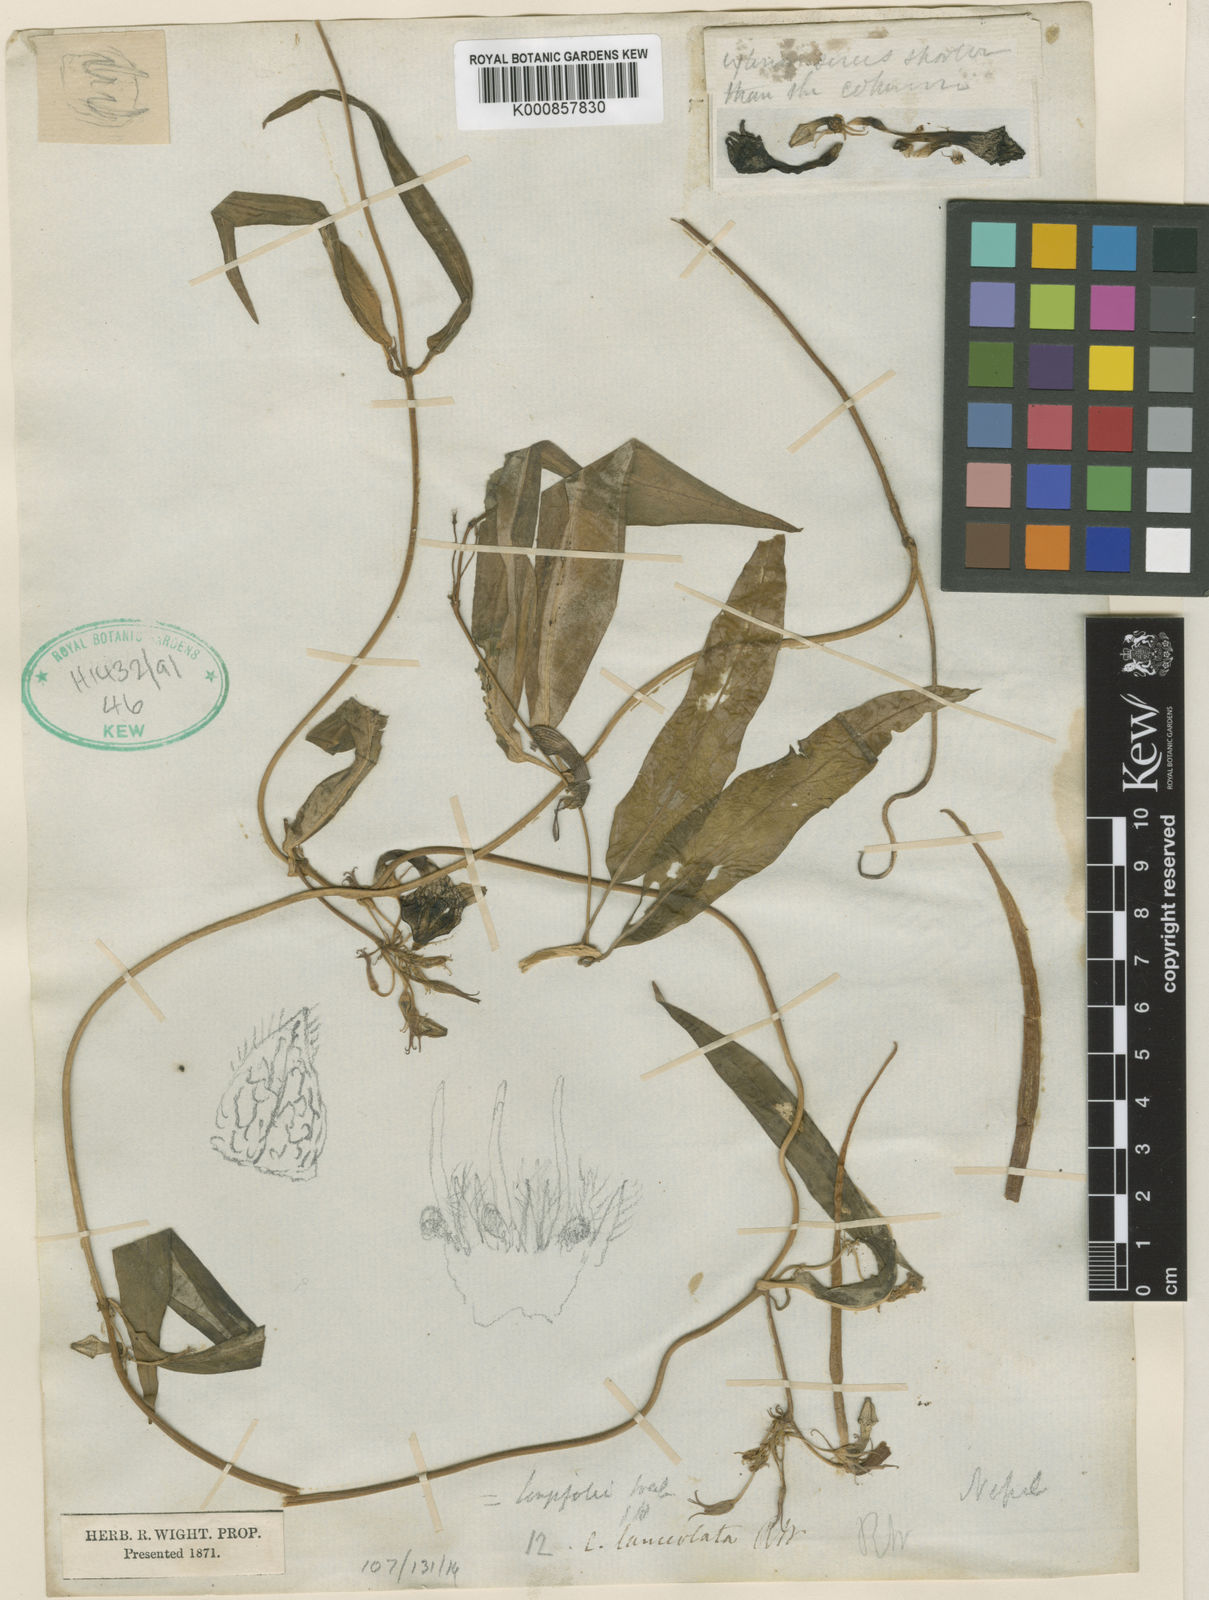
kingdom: Plantae
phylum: Tracheophyta
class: Magnoliopsida
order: Gentianales
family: Apocynaceae
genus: Ceropegia
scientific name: Ceropegia longifolia
